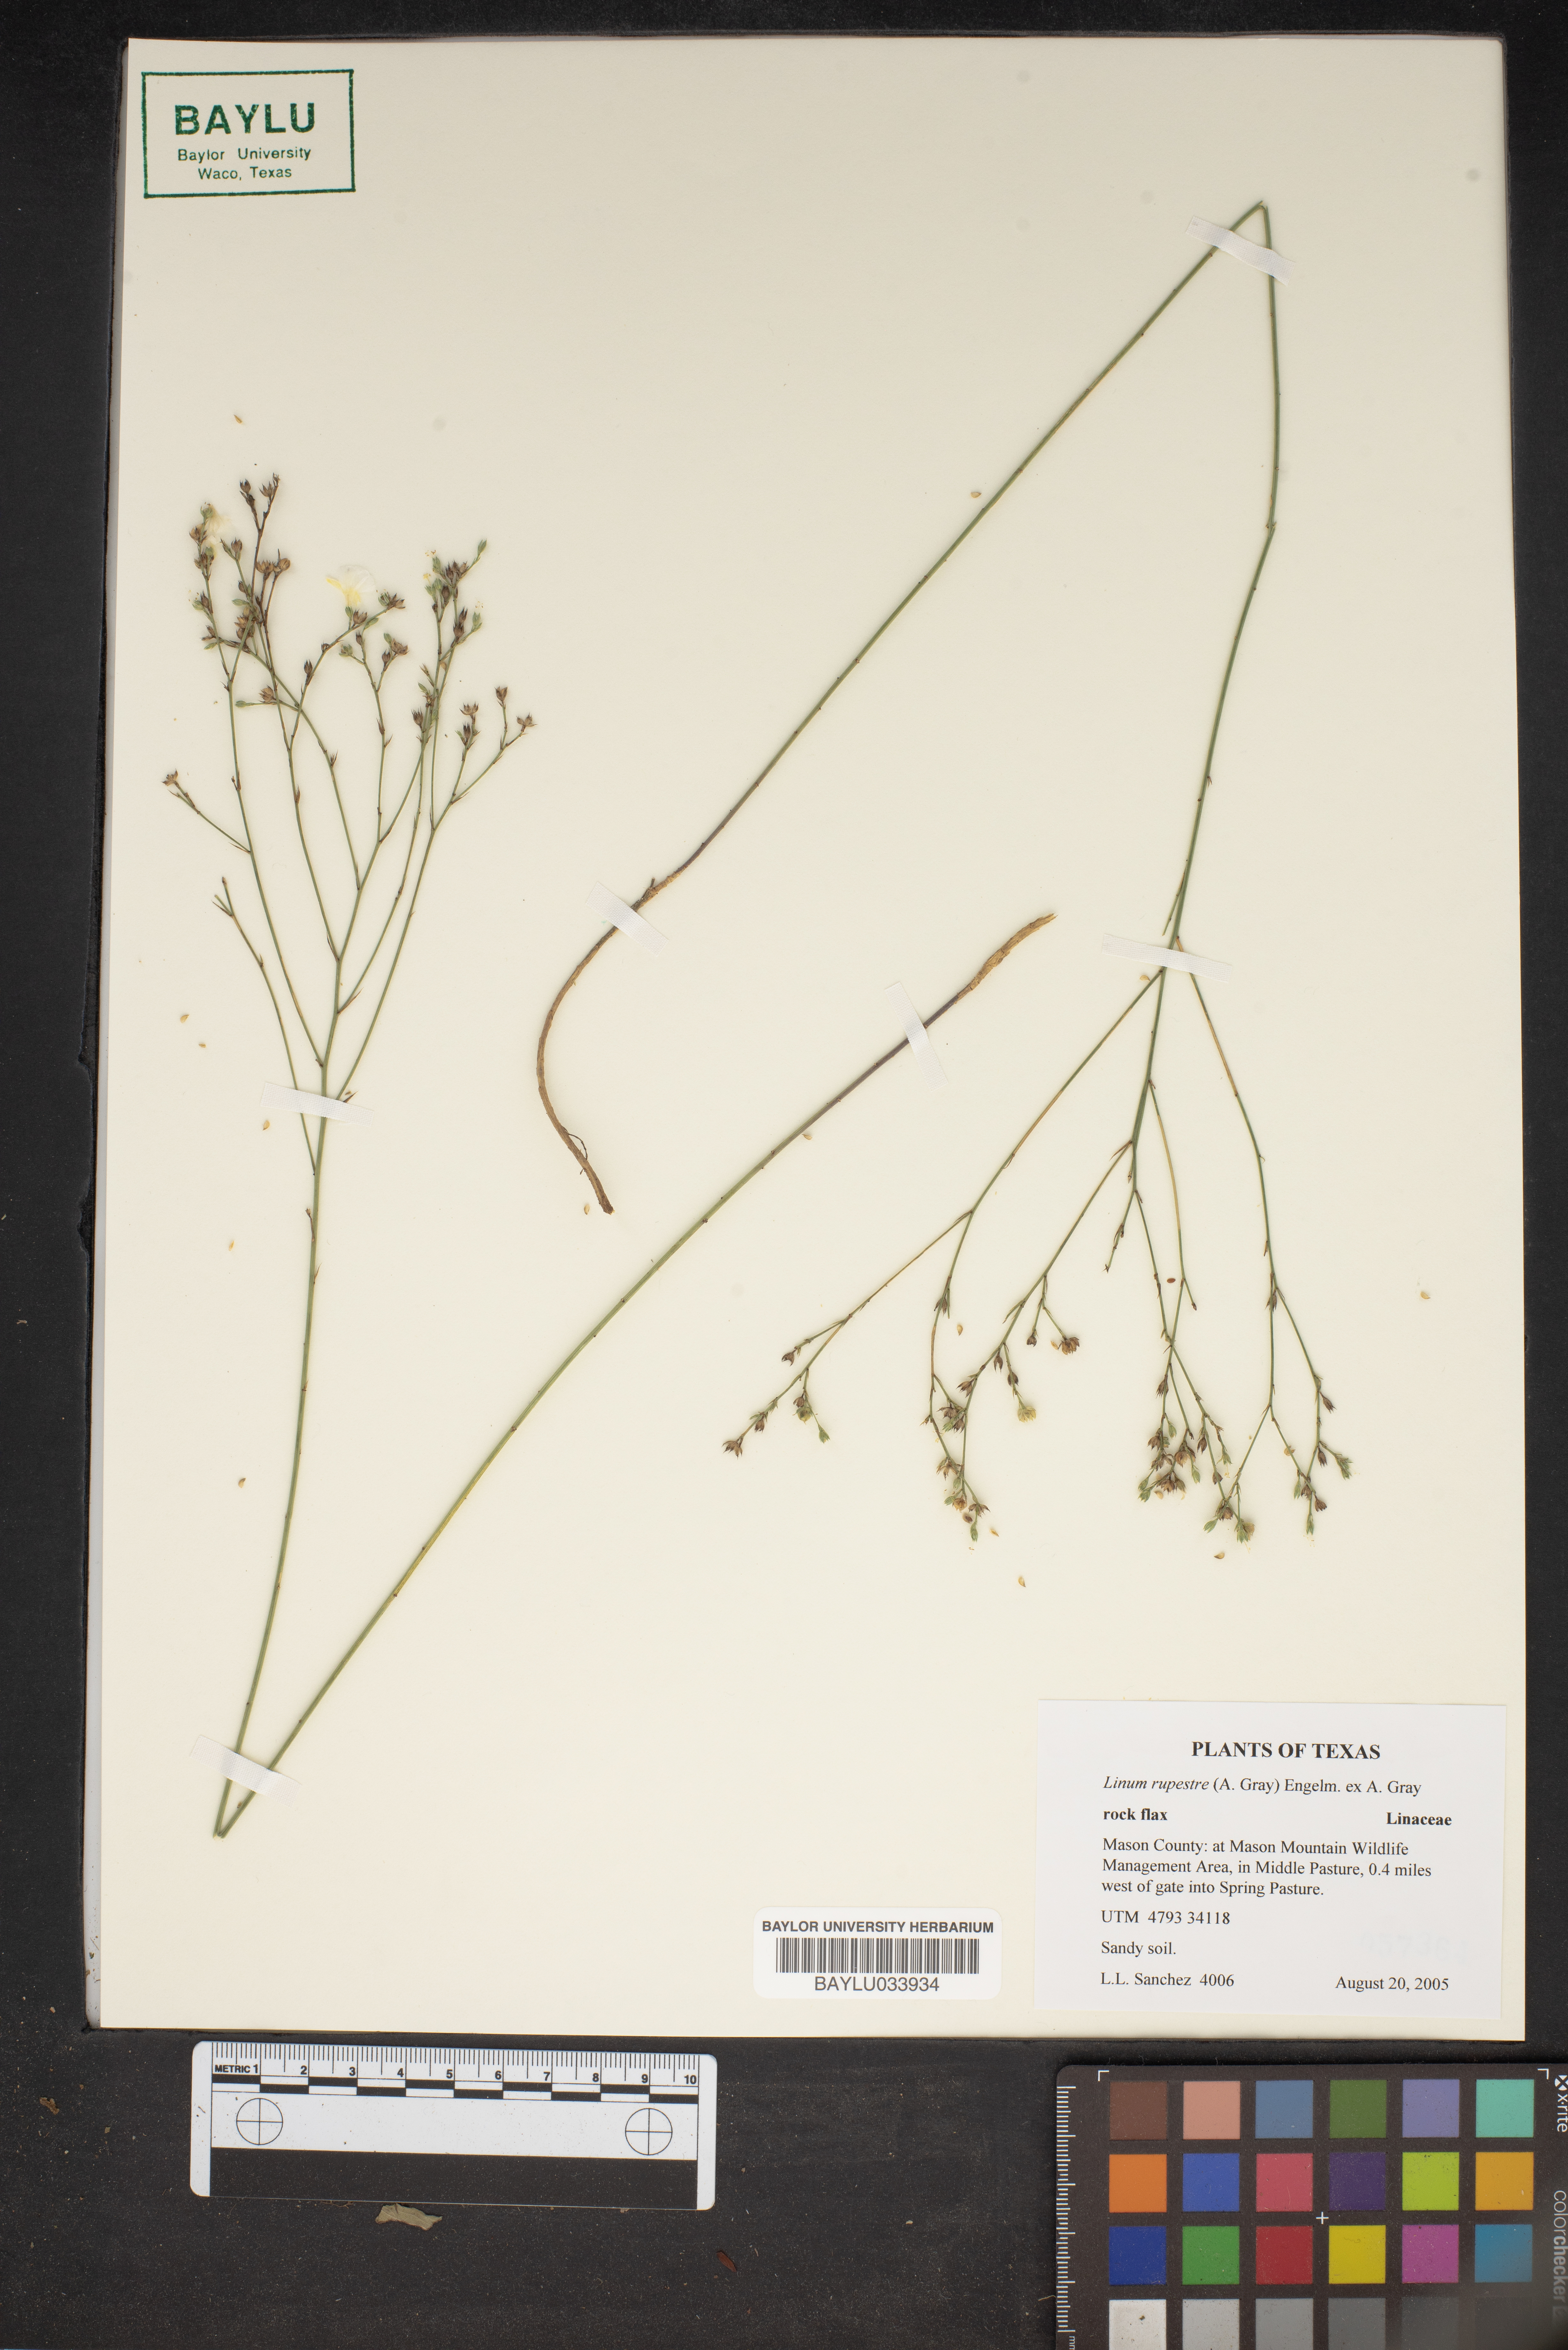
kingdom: Plantae
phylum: Tracheophyta
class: Magnoliopsida
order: Malpighiales
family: Linaceae
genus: Linum
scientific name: Linum rupestre
